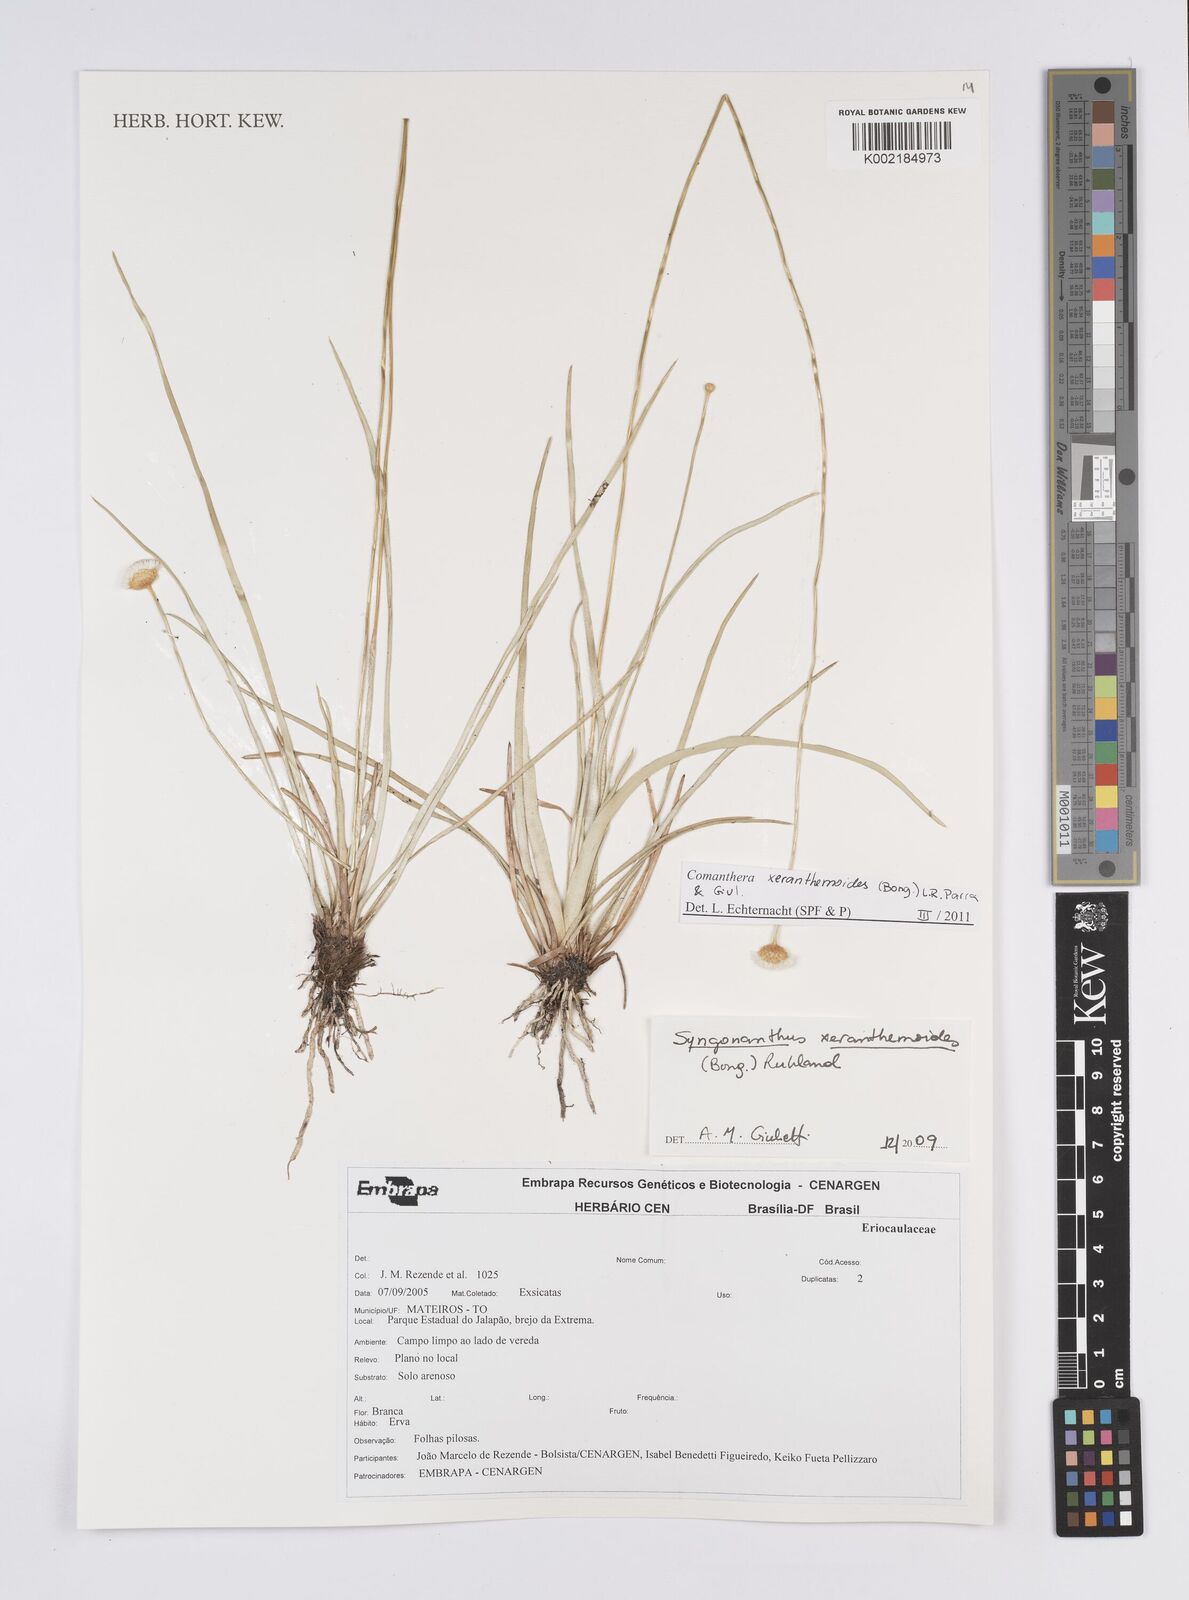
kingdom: Plantae
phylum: Tracheophyta
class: Liliopsida
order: Poales
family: Eriocaulaceae
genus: Comanthera
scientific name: Comanthera xeranthemoides
